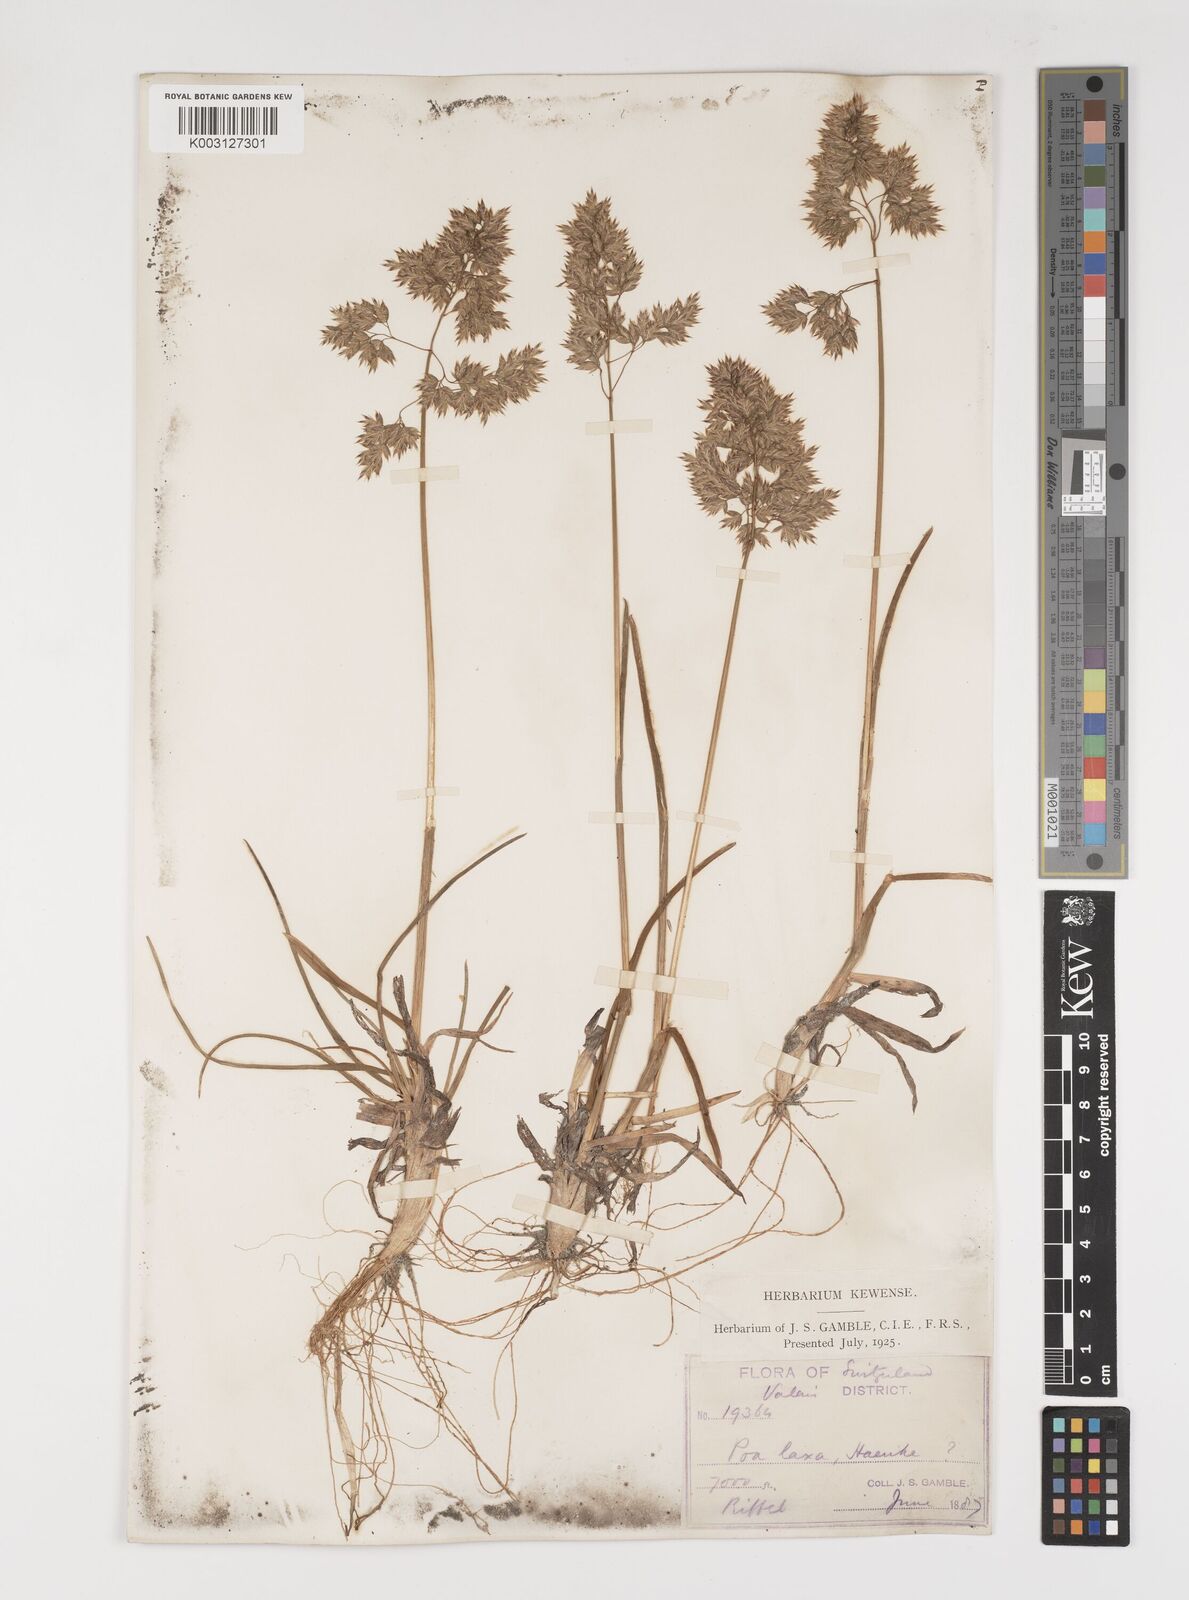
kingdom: Plantae
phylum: Tracheophyta
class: Liliopsida
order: Poales
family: Poaceae
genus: Poa
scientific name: Poa alpina
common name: Alpine bluegrass
